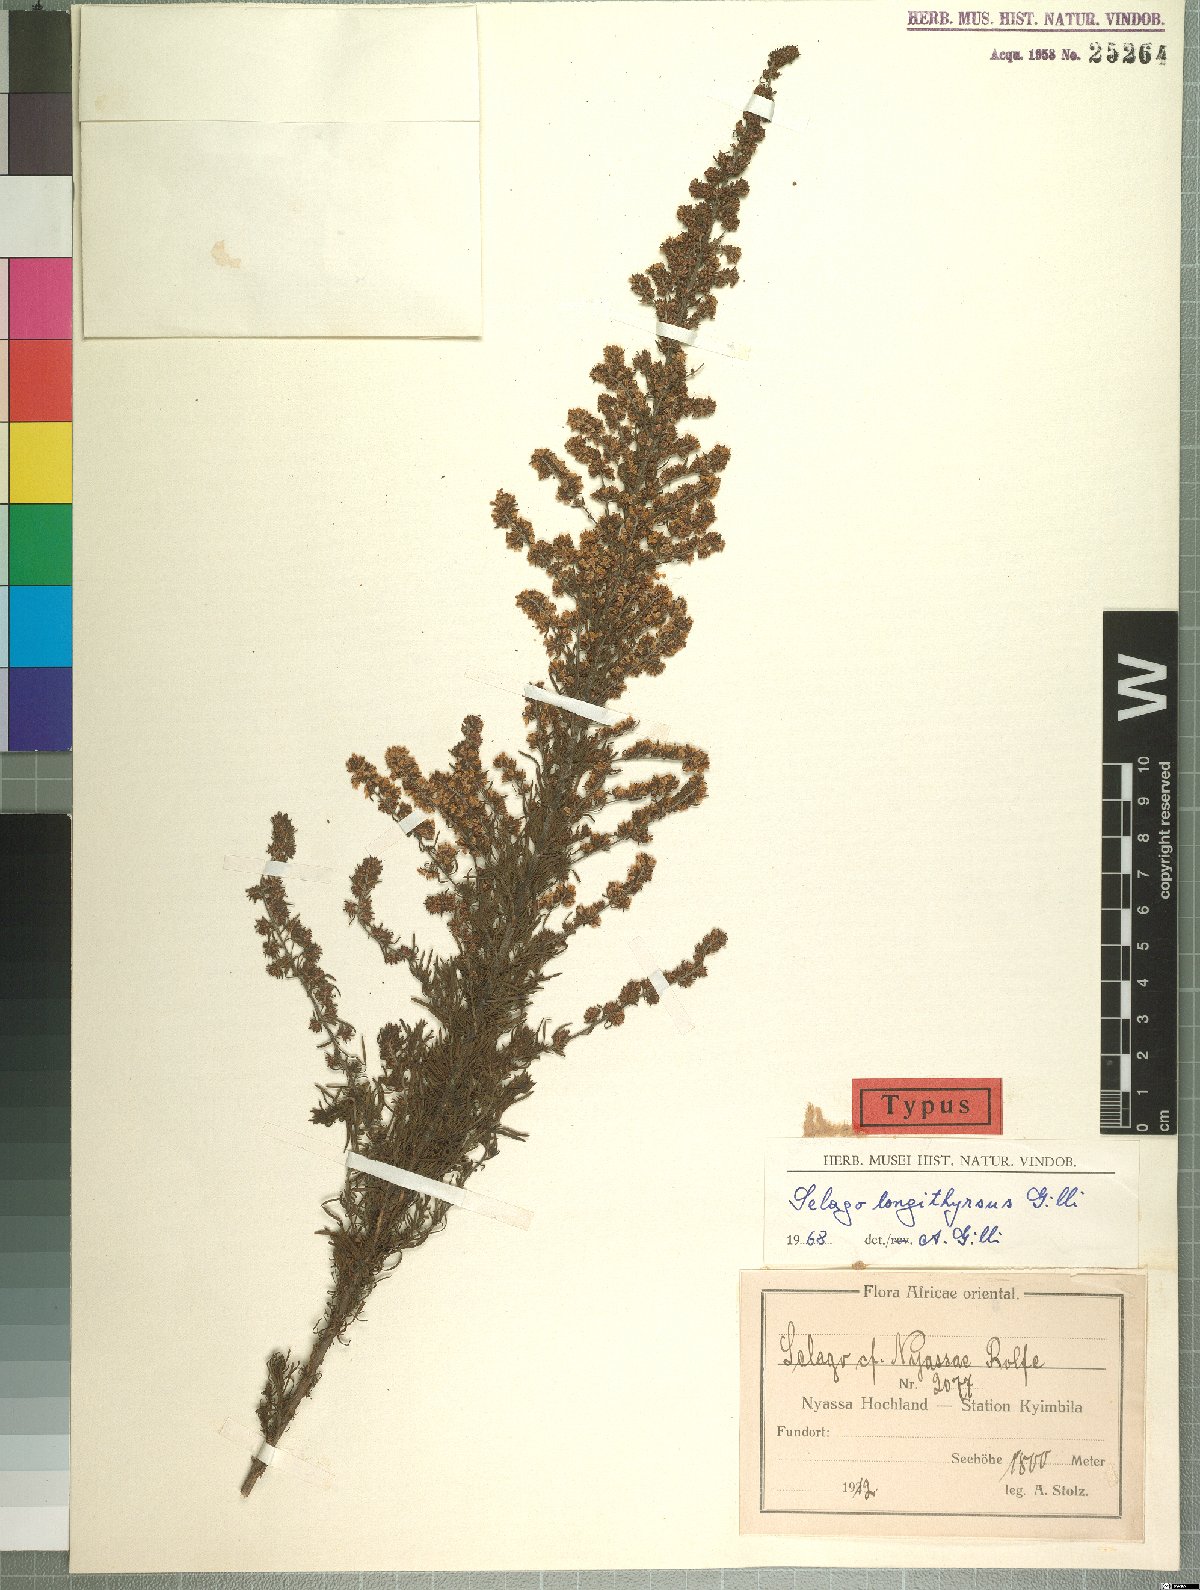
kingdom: Plantae
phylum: Tracheophyta
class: Magnoliopsida
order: Lamiales
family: Scrophulariaceae
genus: Selago
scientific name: Selago nyasae
